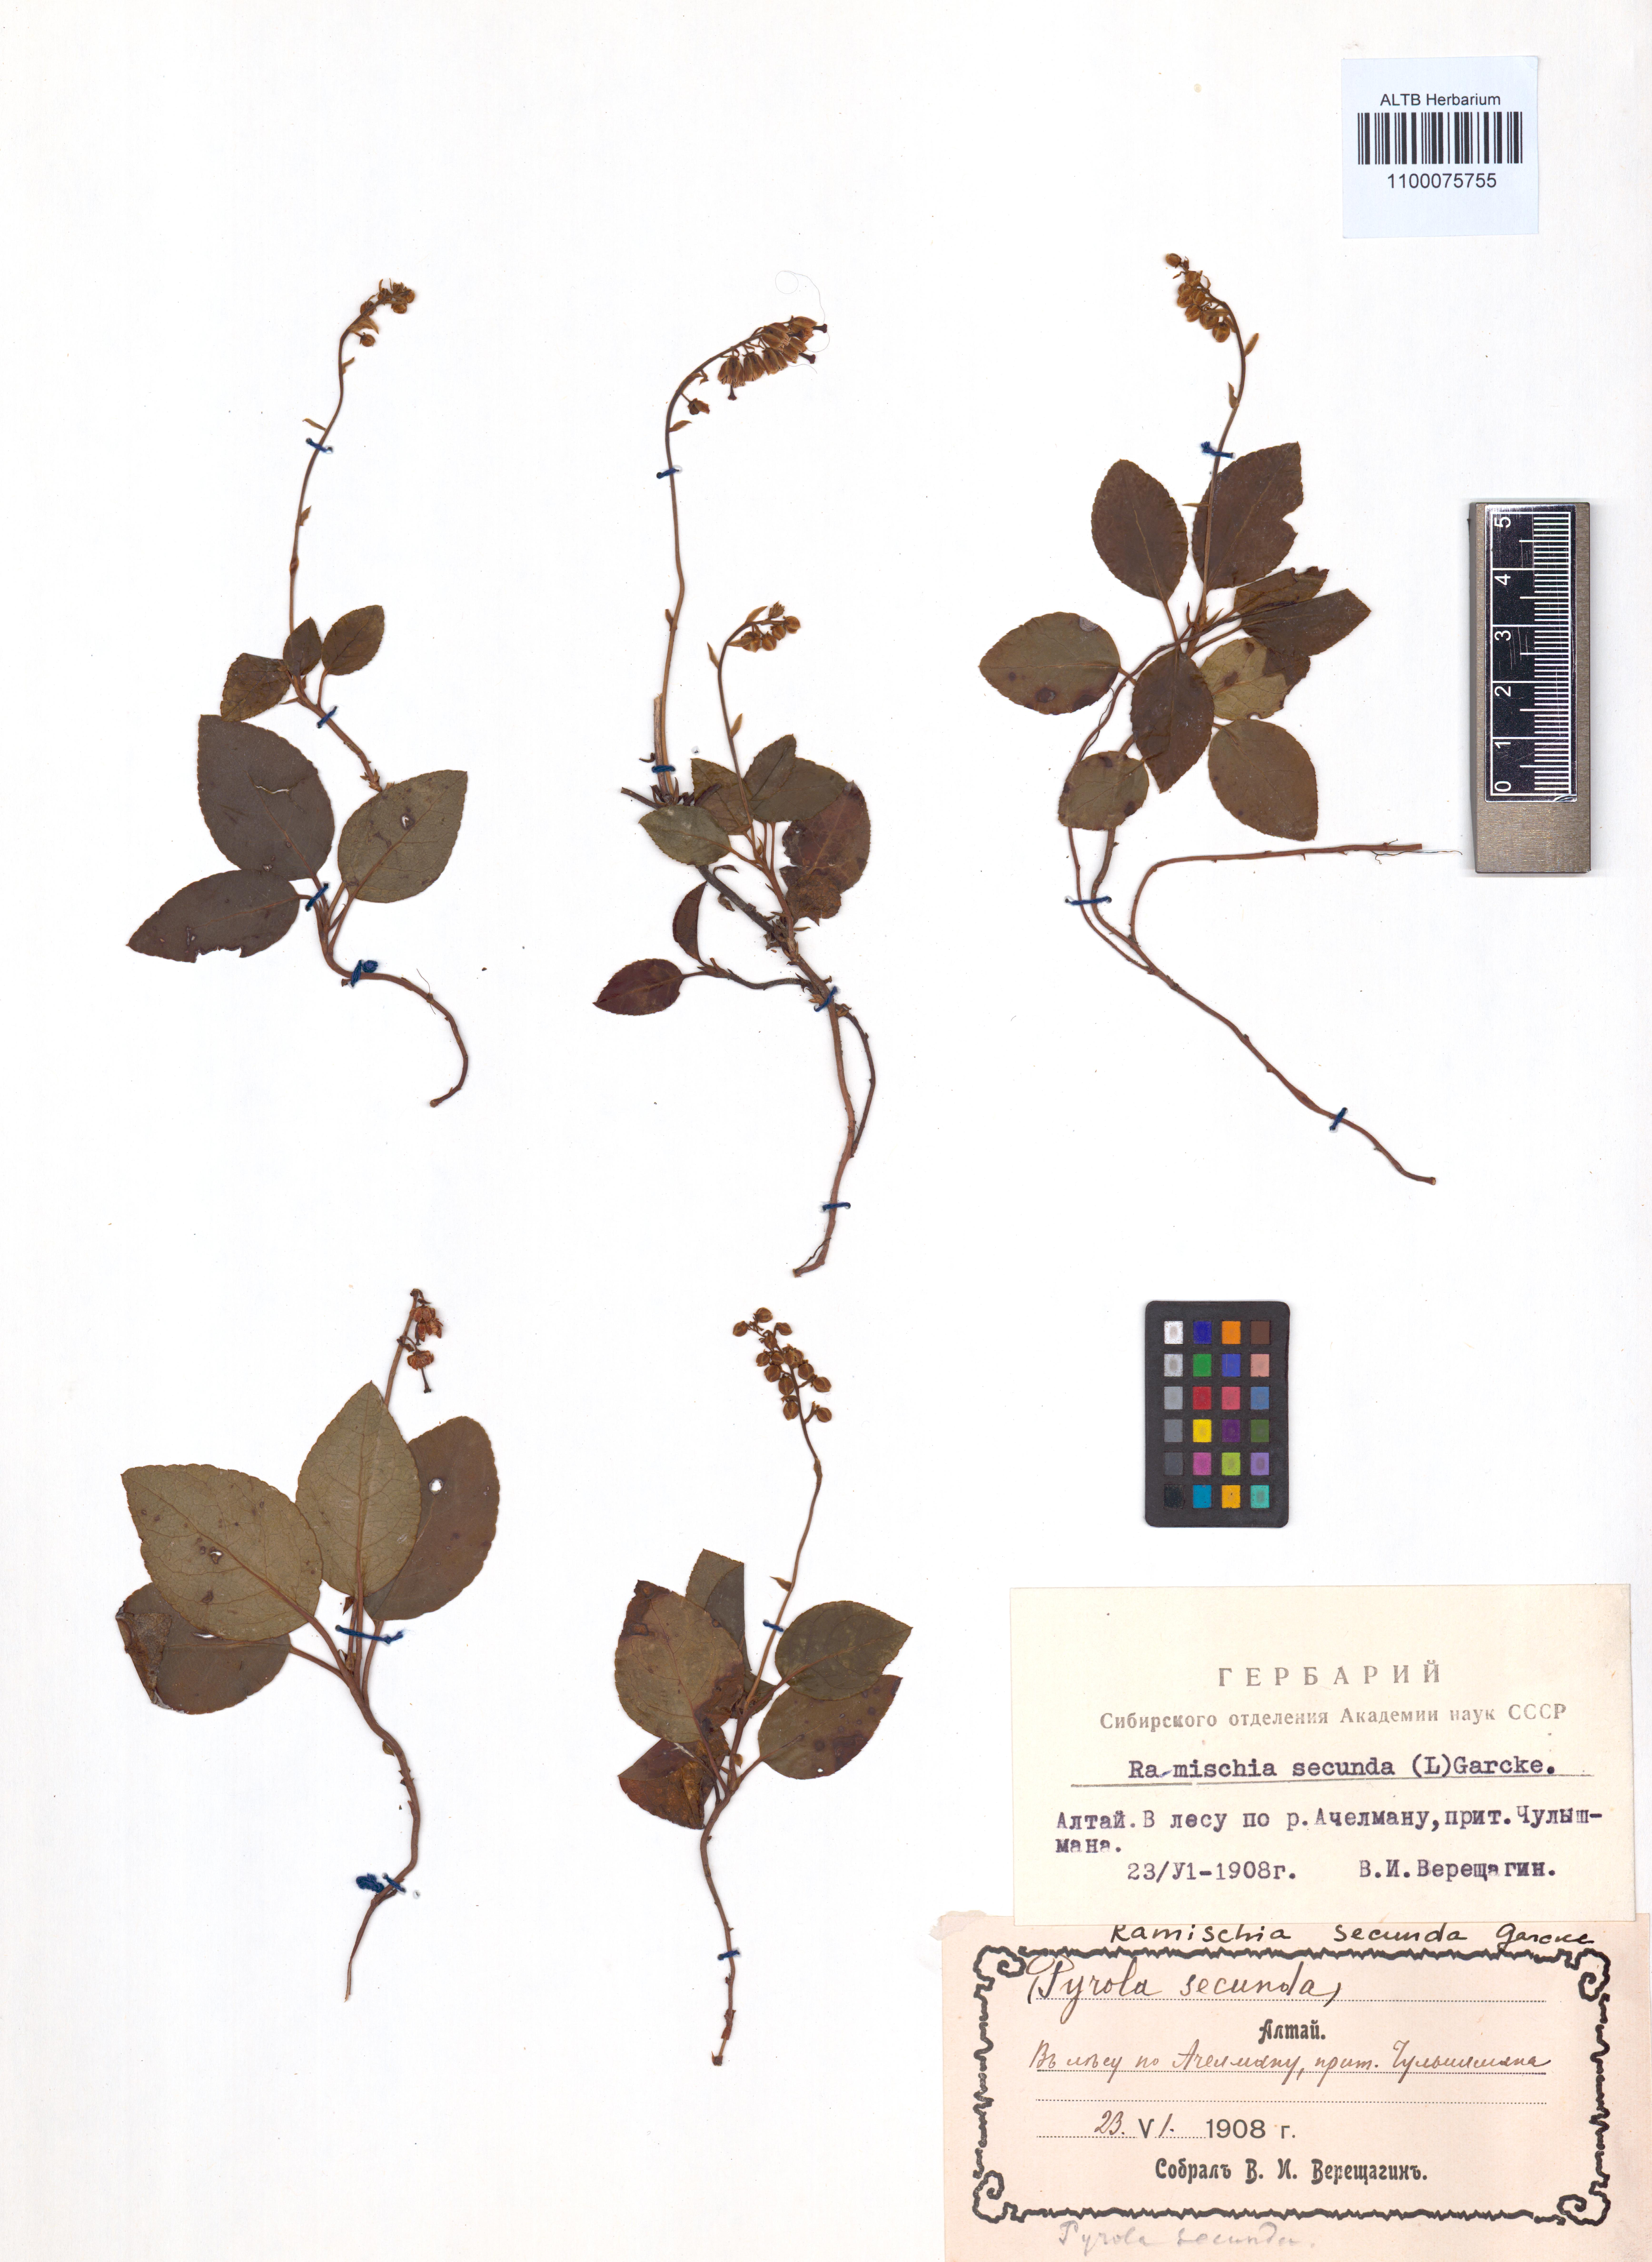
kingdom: Plantae
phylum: Tracheophyta
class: Magnoliopsida
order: Ericales
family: Ericaceae
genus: Orthilia
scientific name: Orthilia secunda
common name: One-sided orthilia
